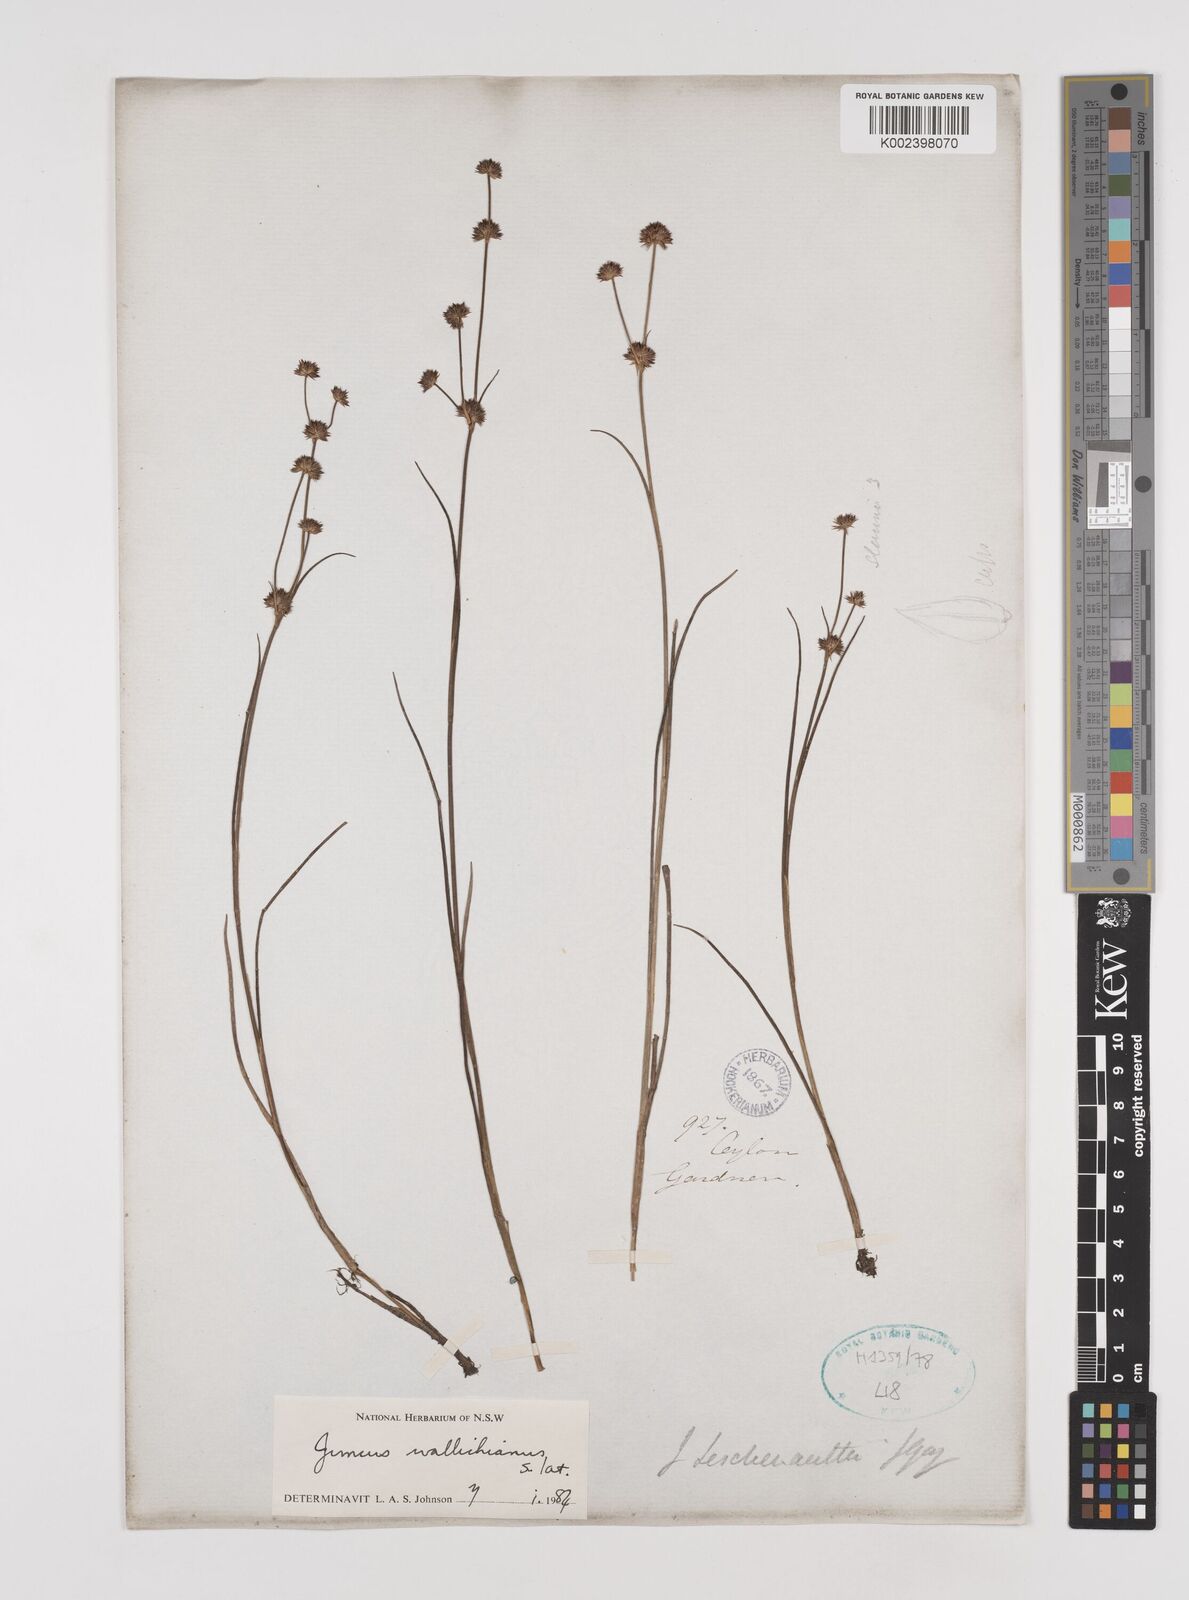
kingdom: Plantae
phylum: Tracheophyta
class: Liliopsida
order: Poales
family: Juncaceae
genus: Juncus
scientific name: Juncus wallichianus
